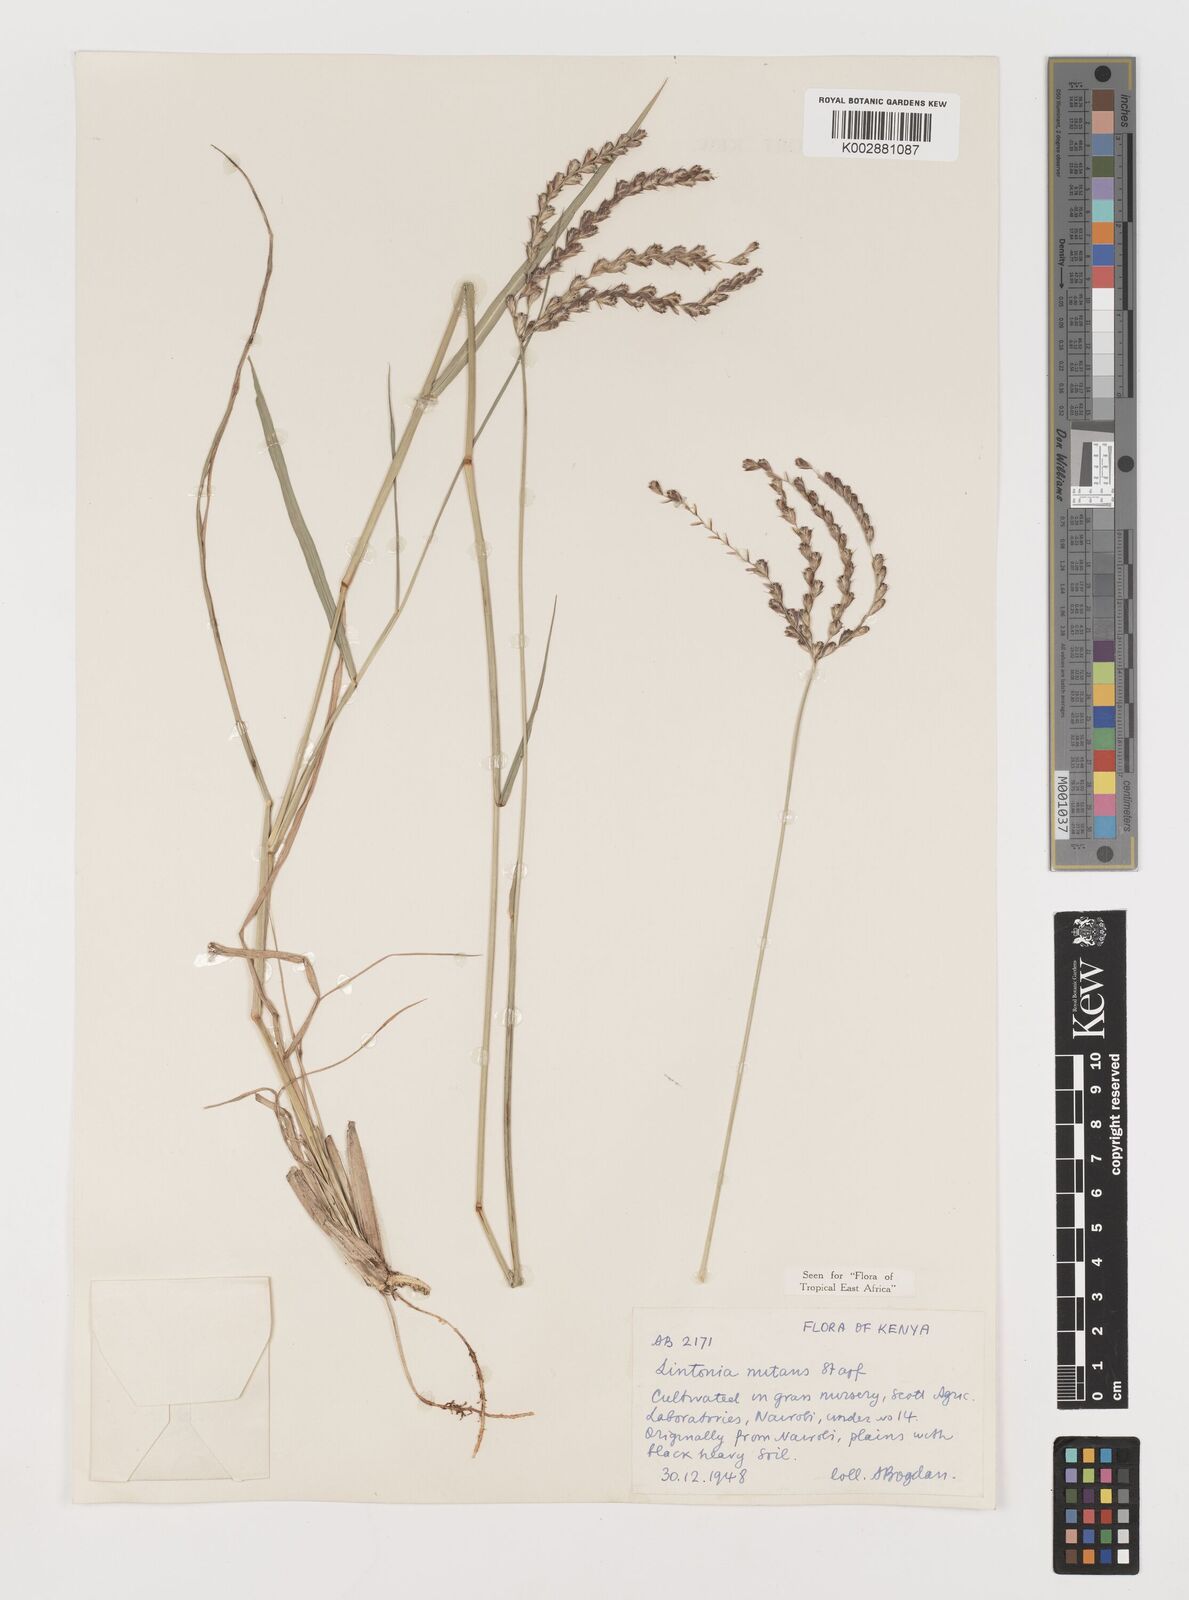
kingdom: Plantae
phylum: Tracheophyta
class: Liliopsida
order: Poales
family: Poaceae
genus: Chloris
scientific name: Chloris nutans
